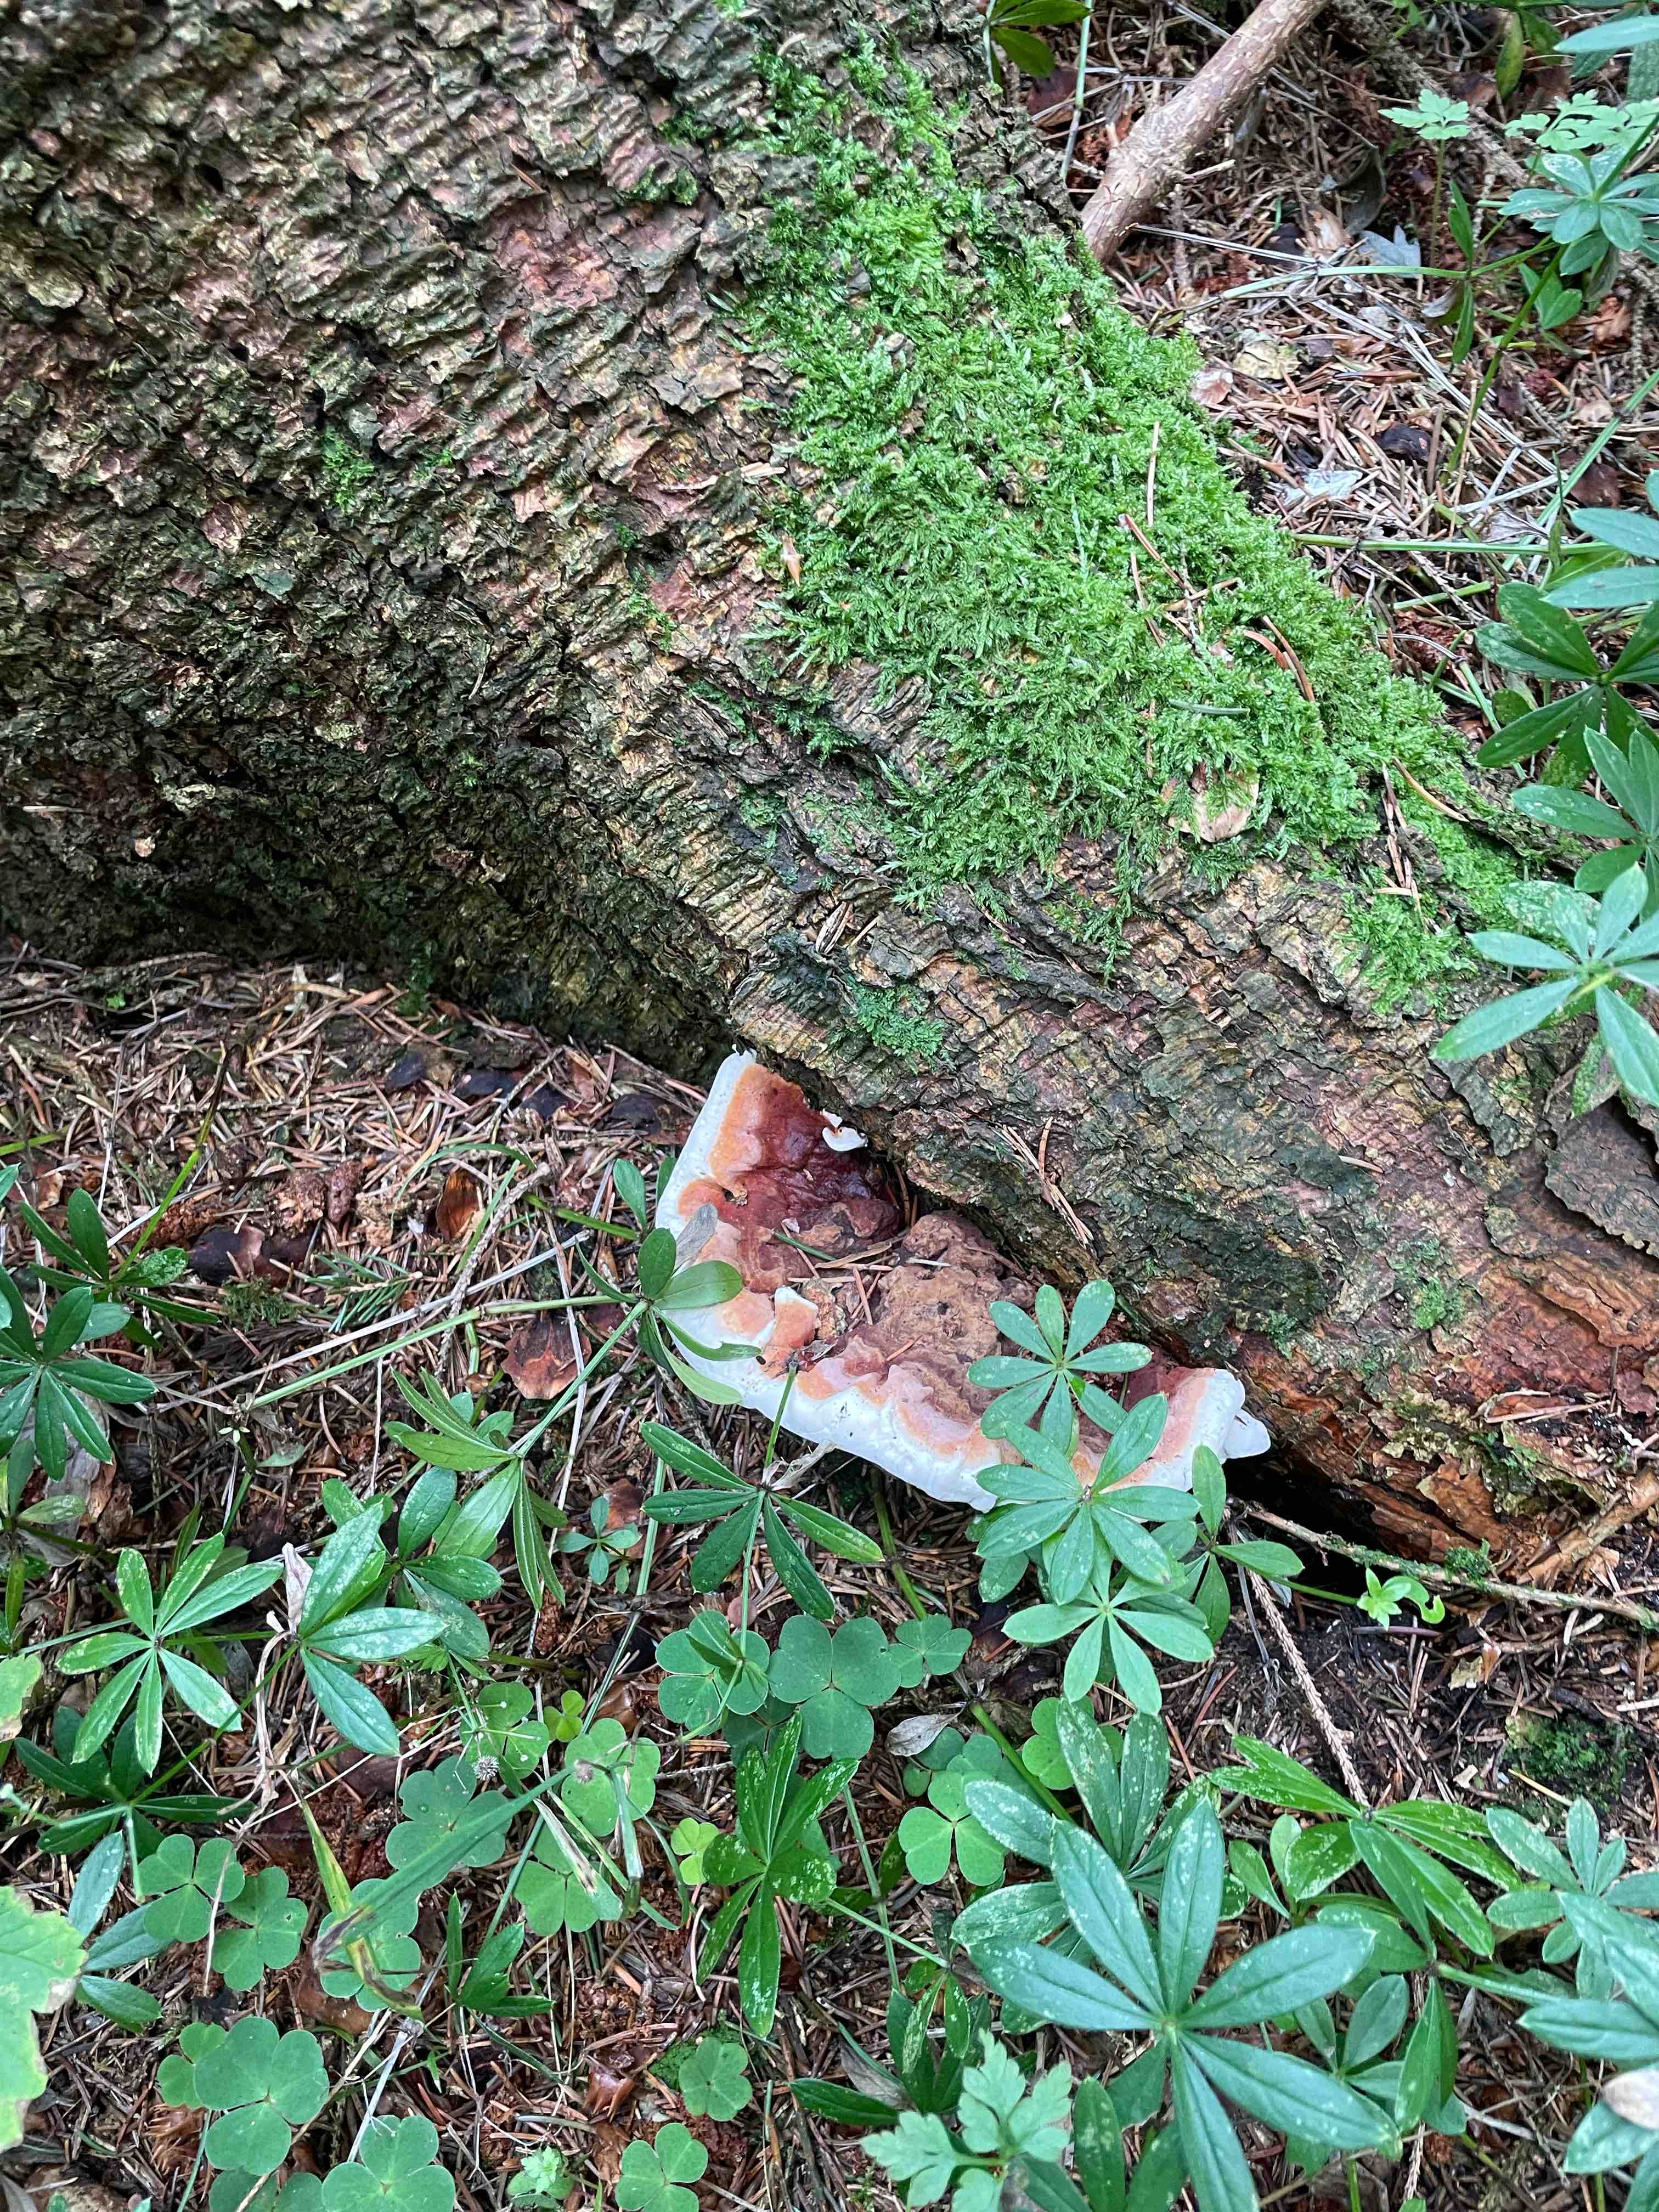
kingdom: Fungi
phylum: Basidiomycota
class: Agaricomycetes
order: Polyporales
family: Fomitopsidaceae
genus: Fomitopsis
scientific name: Fomitopsis pinicola
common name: randbæltet hovporesvamp
